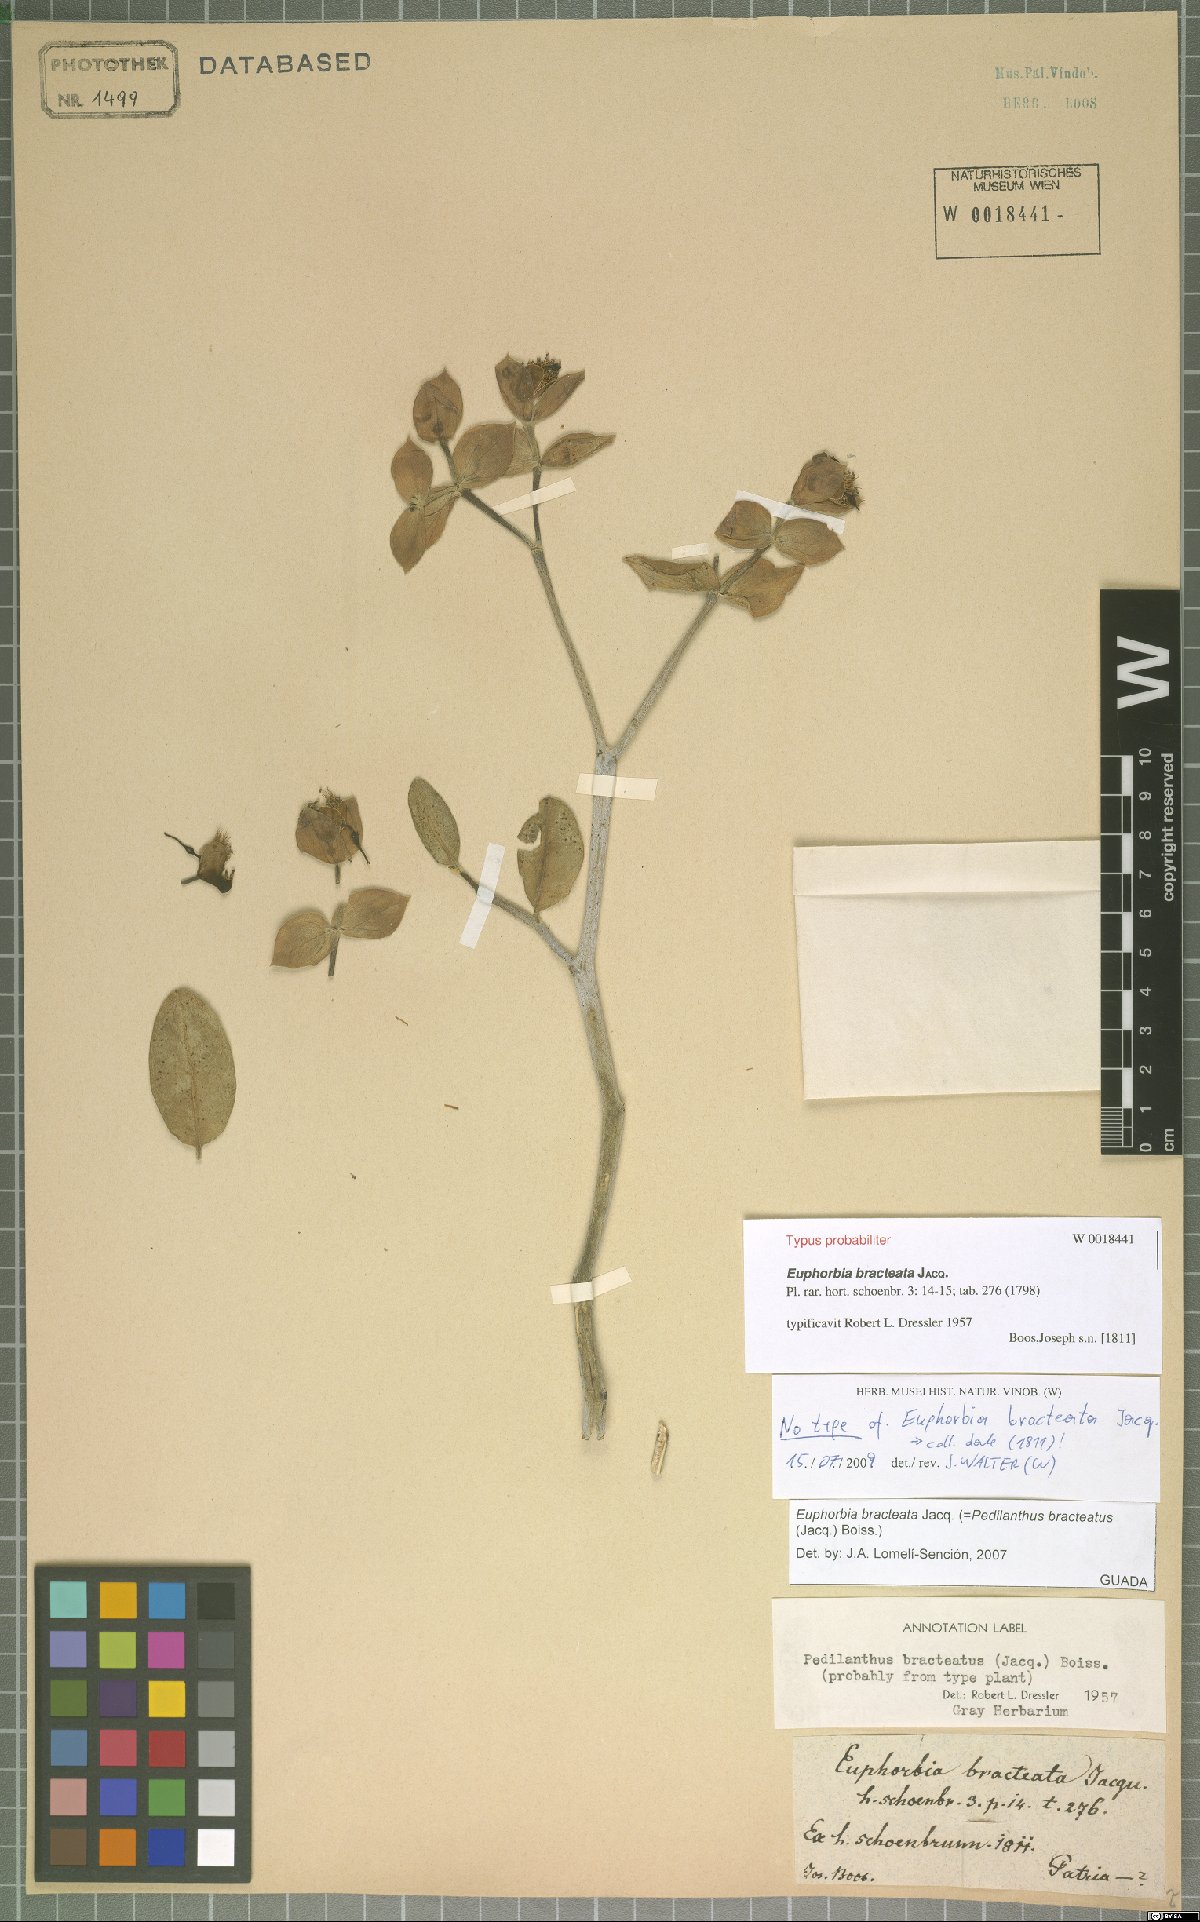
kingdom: Plantae
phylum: Tracheophyta
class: Magnoliopsida
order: Malpighiales
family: Euphorbiaceae
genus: Euphorbia
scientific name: Euphorbia bracteata
